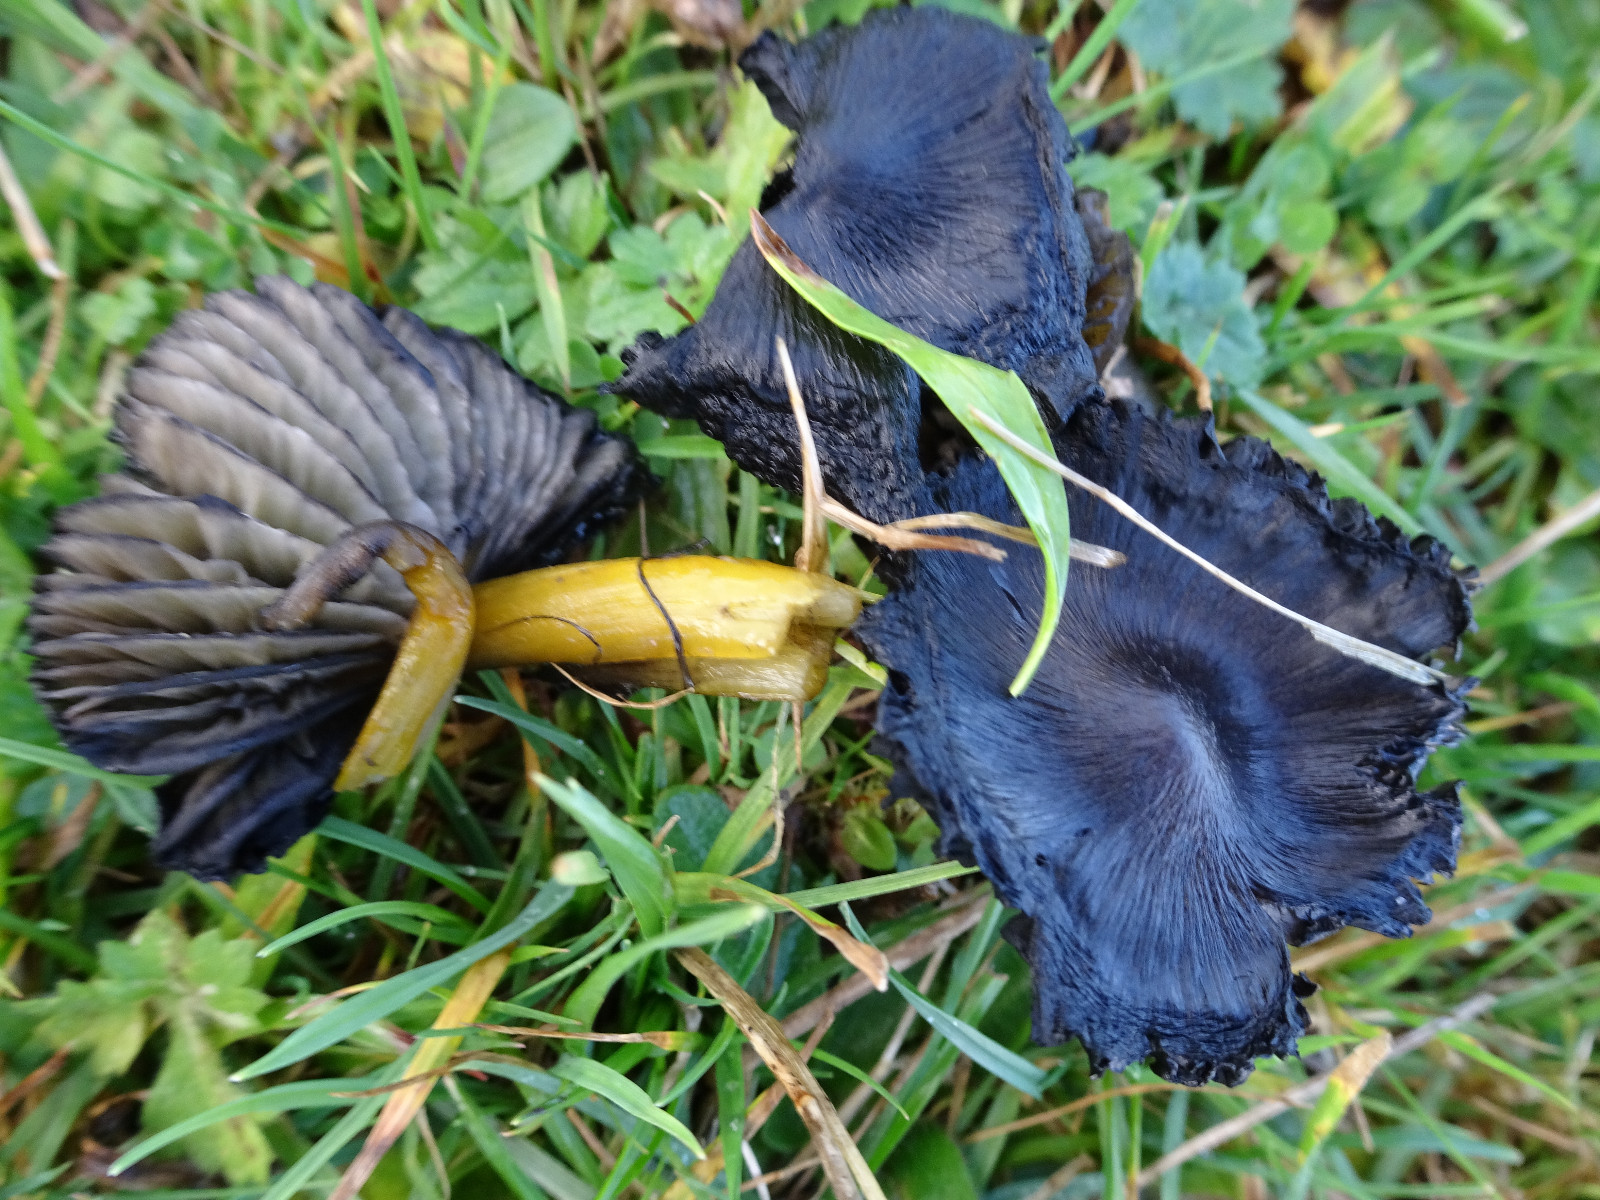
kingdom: Fungi
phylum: Basidiomycota
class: Agaricomycetes
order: Agaricales
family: Hygrophoraceae
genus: Hygrocybe
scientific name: Hygrocybe conica
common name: kegle-vokshat
